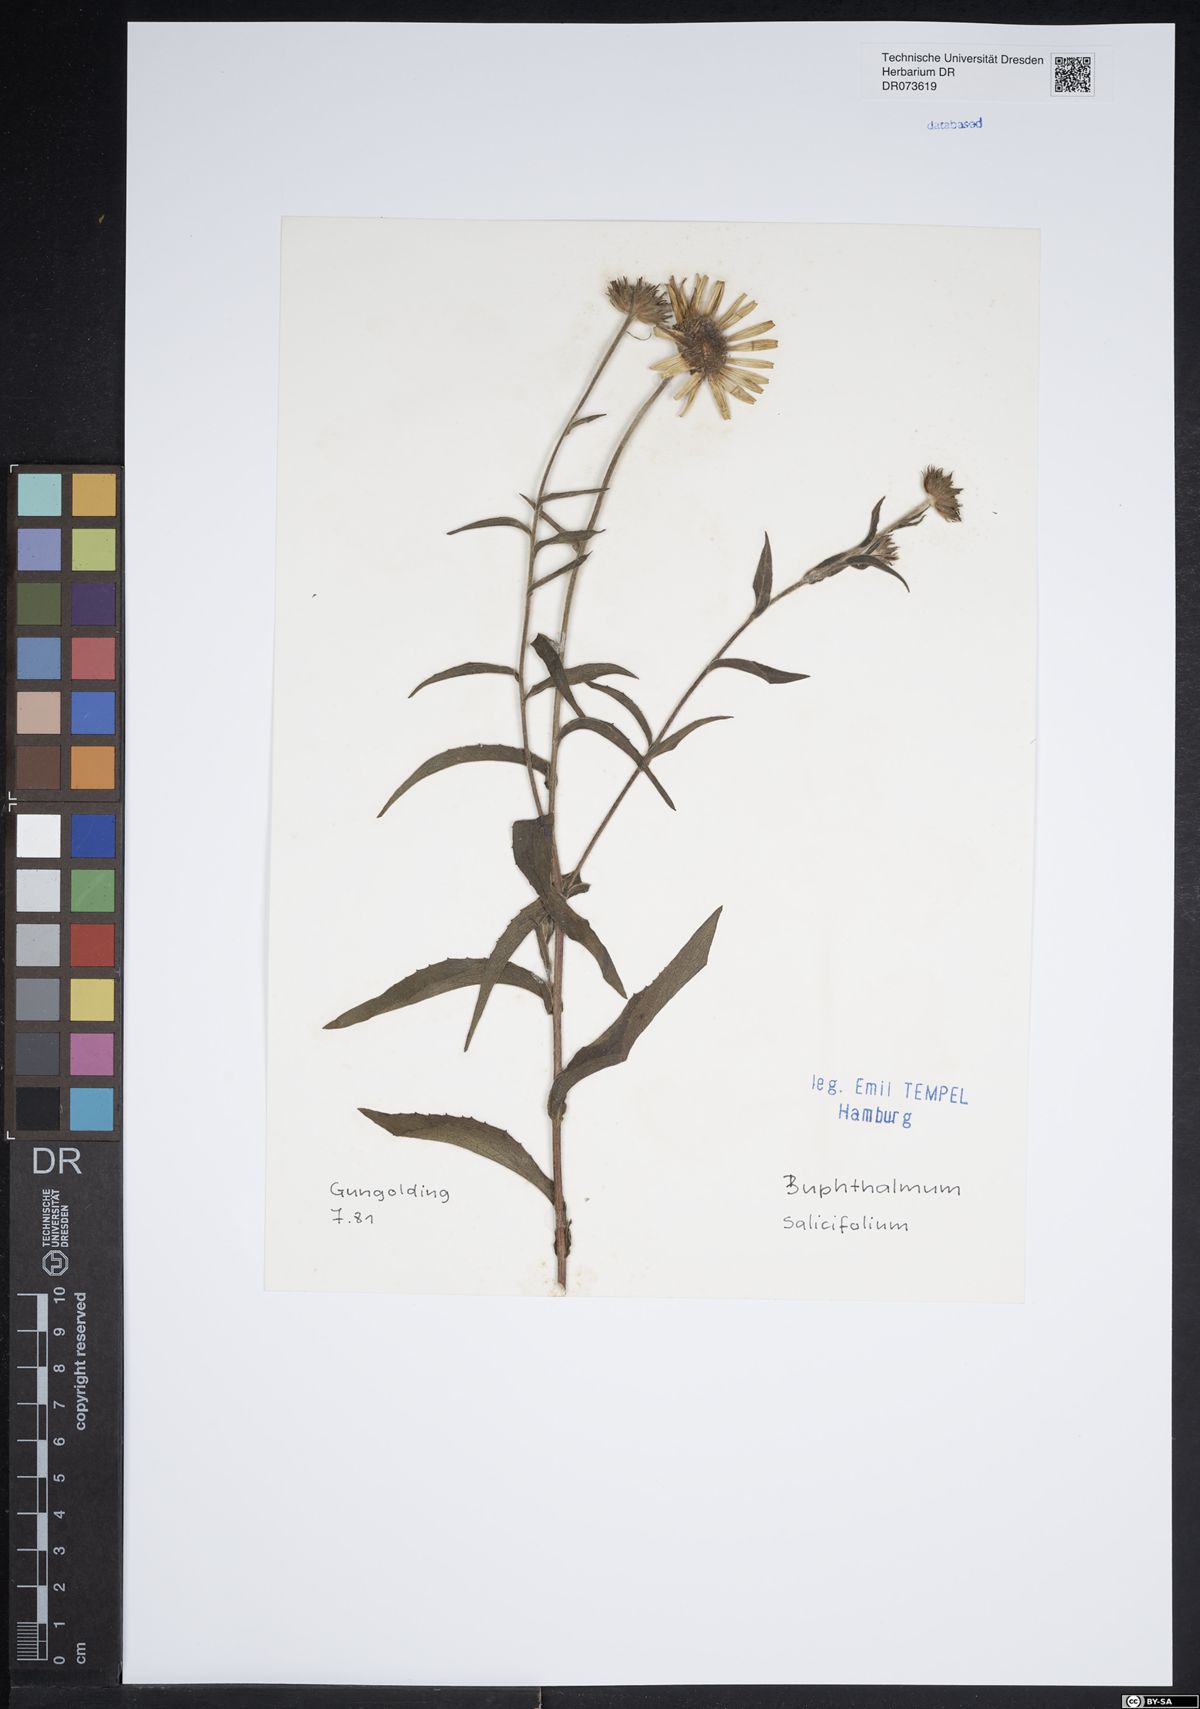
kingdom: Plantae
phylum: Tracheophyta
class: Magnoliopsida
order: Asterales
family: Asteraceae
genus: Buphthalmum
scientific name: Buphthalmum salicifolium
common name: Willow-leaved yellow-oxeye
